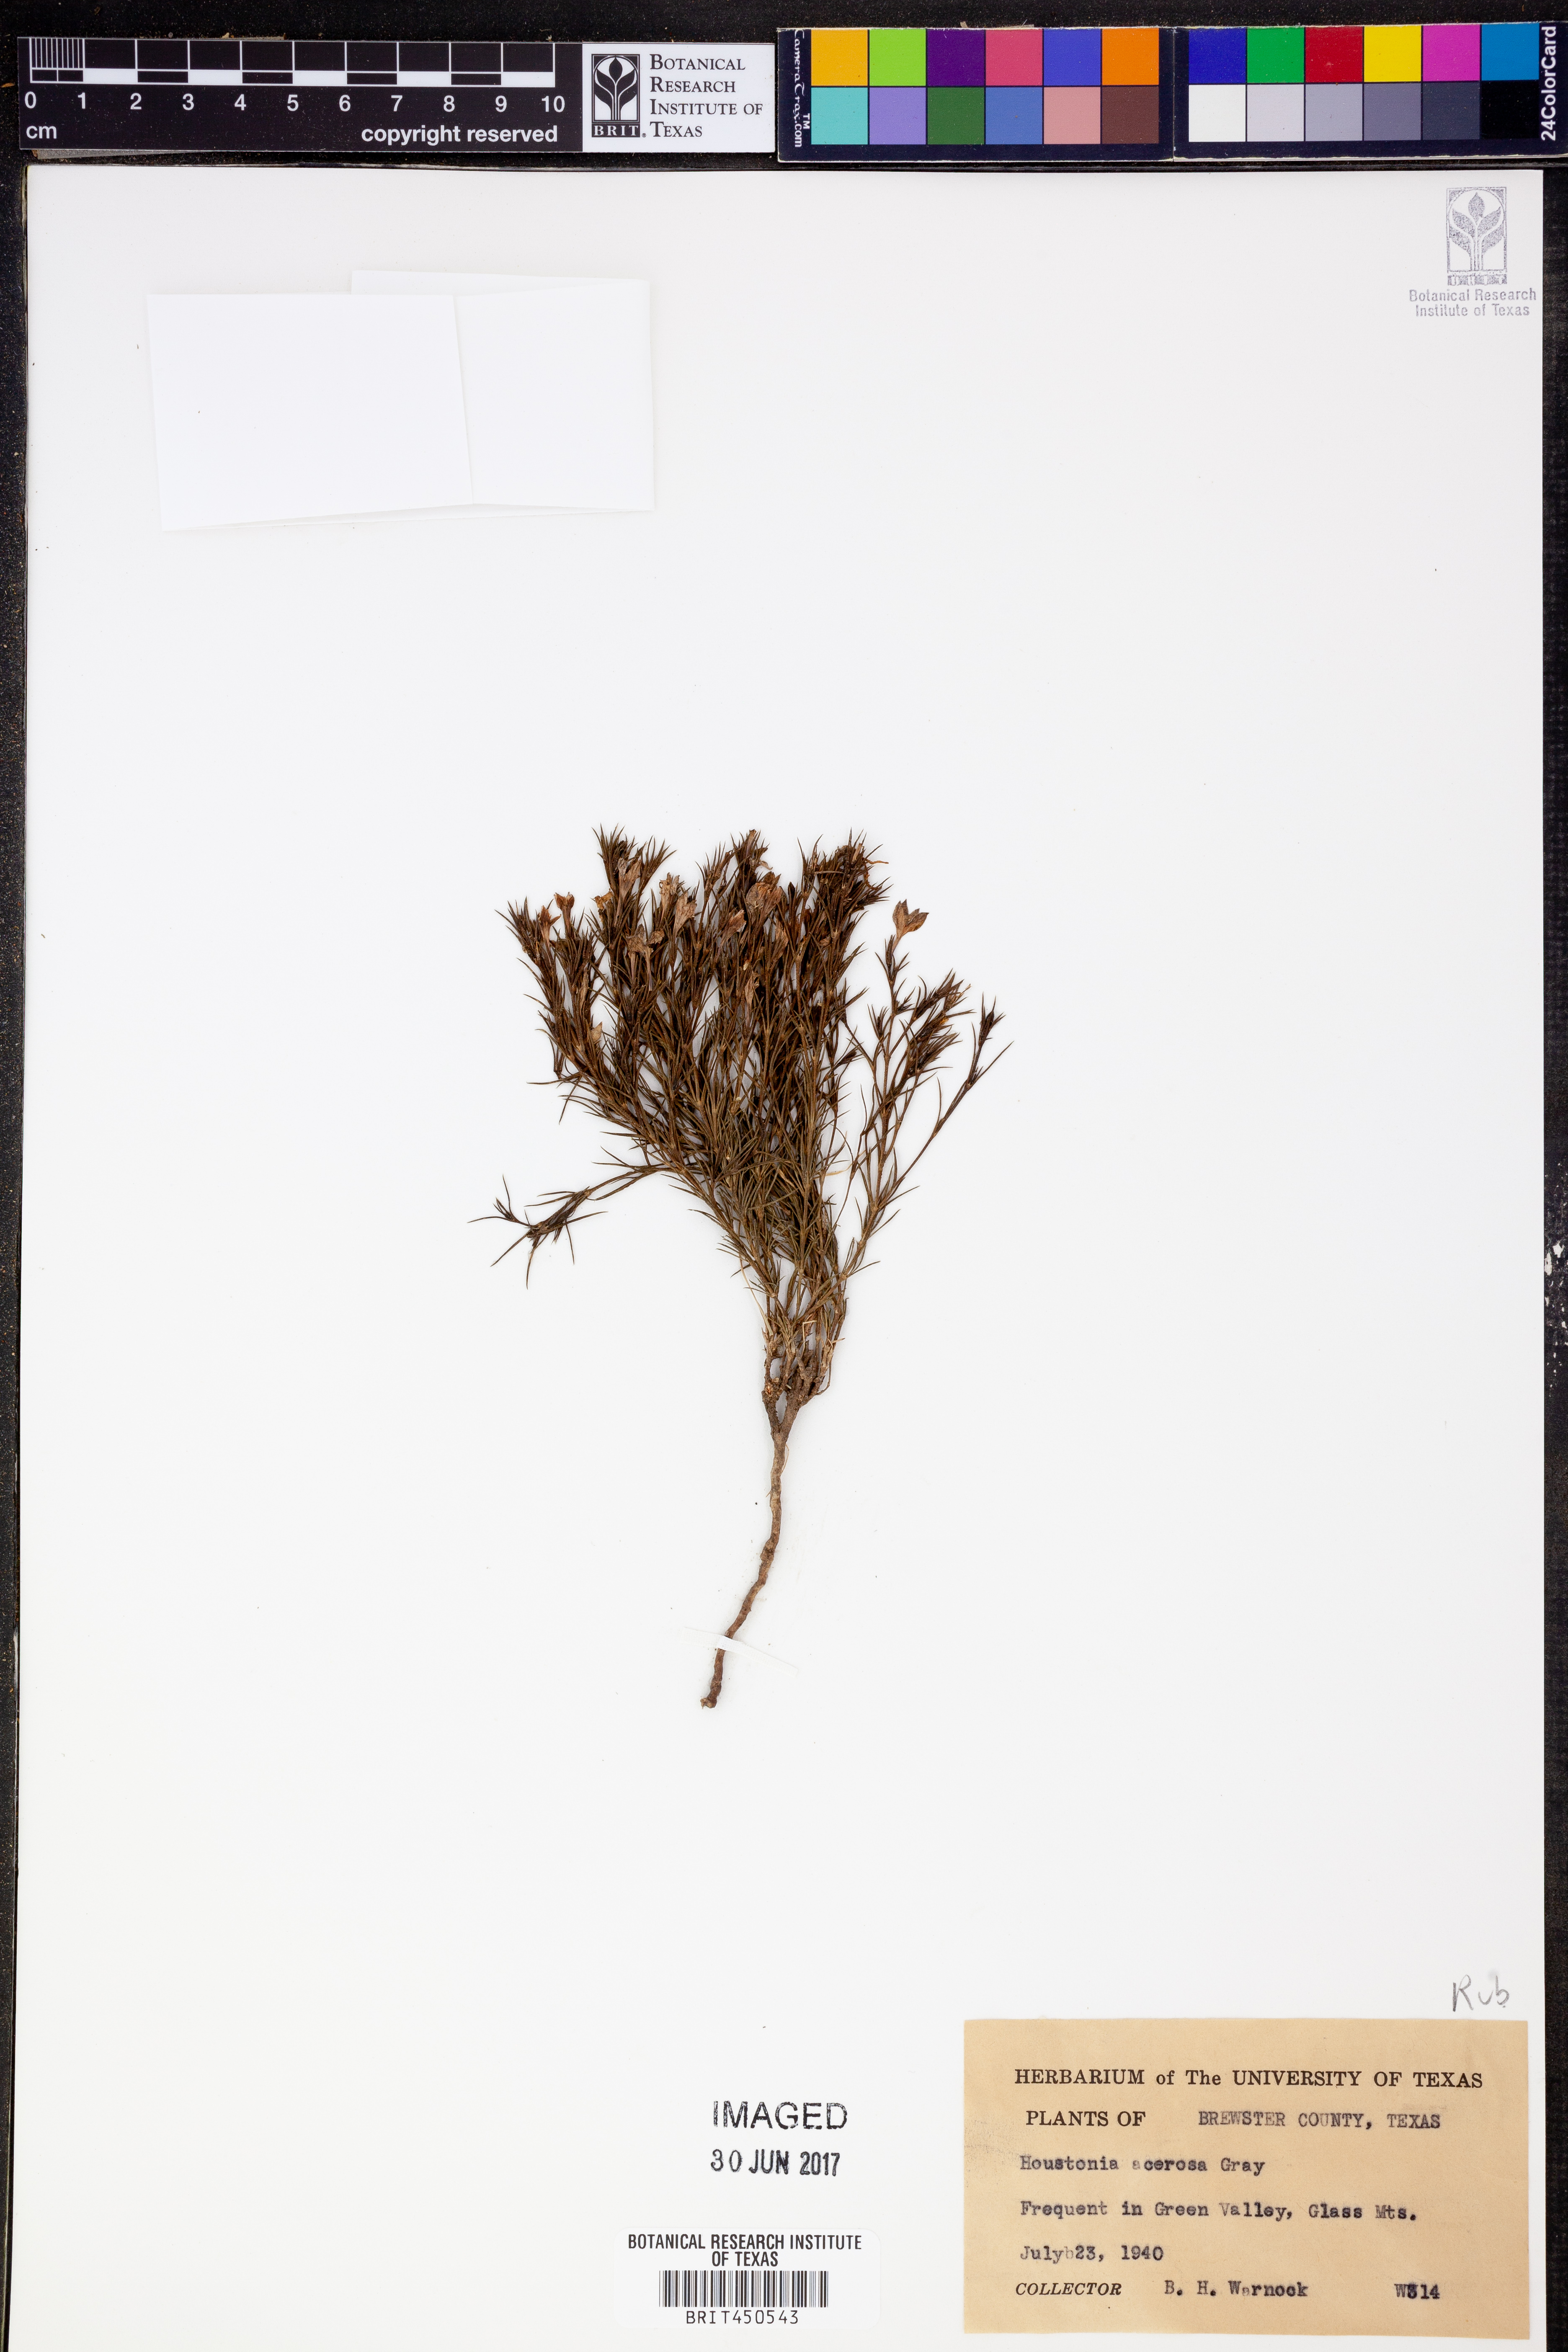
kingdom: Plantae
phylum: Tracheophyta
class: Magnoliopsida
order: Gentianales
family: Rubiaceae
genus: Houstonia
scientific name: Houstonia acerosa
